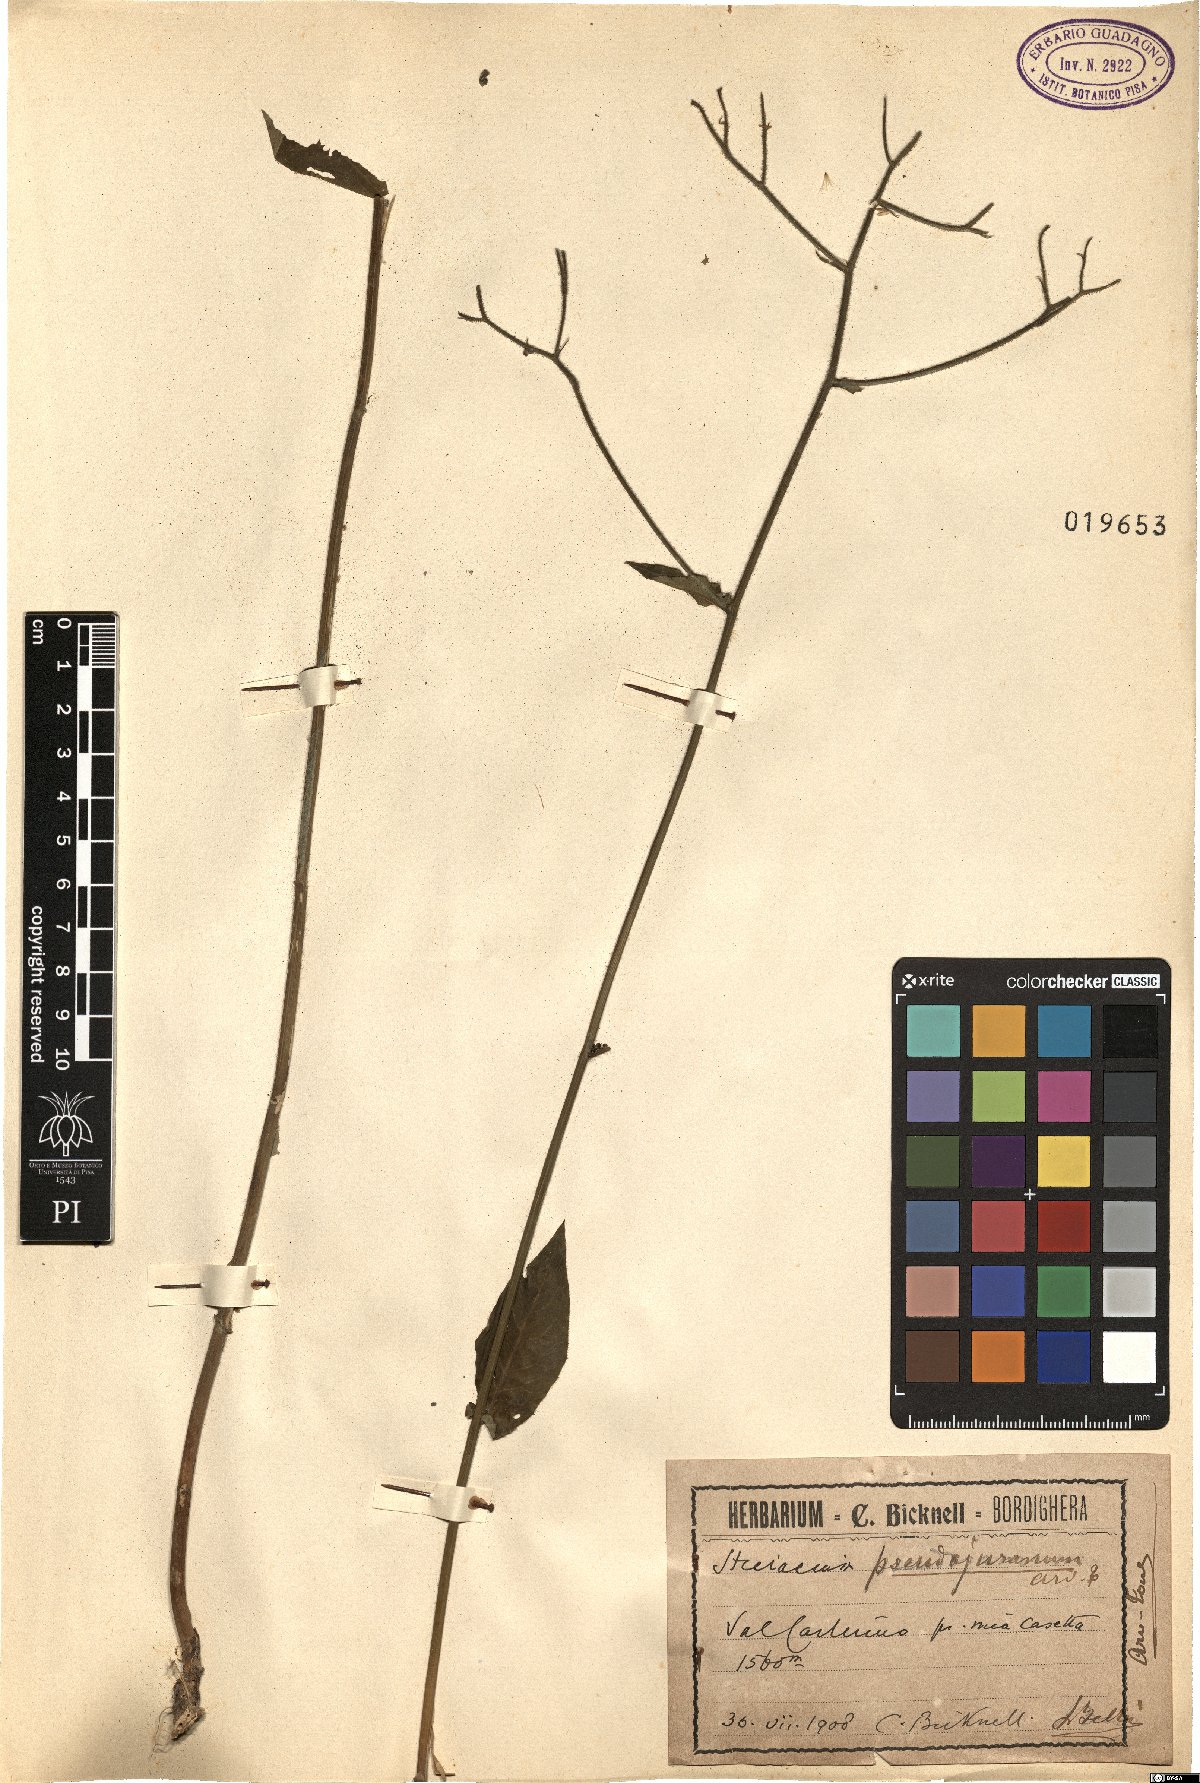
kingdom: Plantae
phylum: Tracheophyta
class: Magnoliopsida
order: Asterales
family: Asteraceae
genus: Hieracium
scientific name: Hieracium jurassicum
